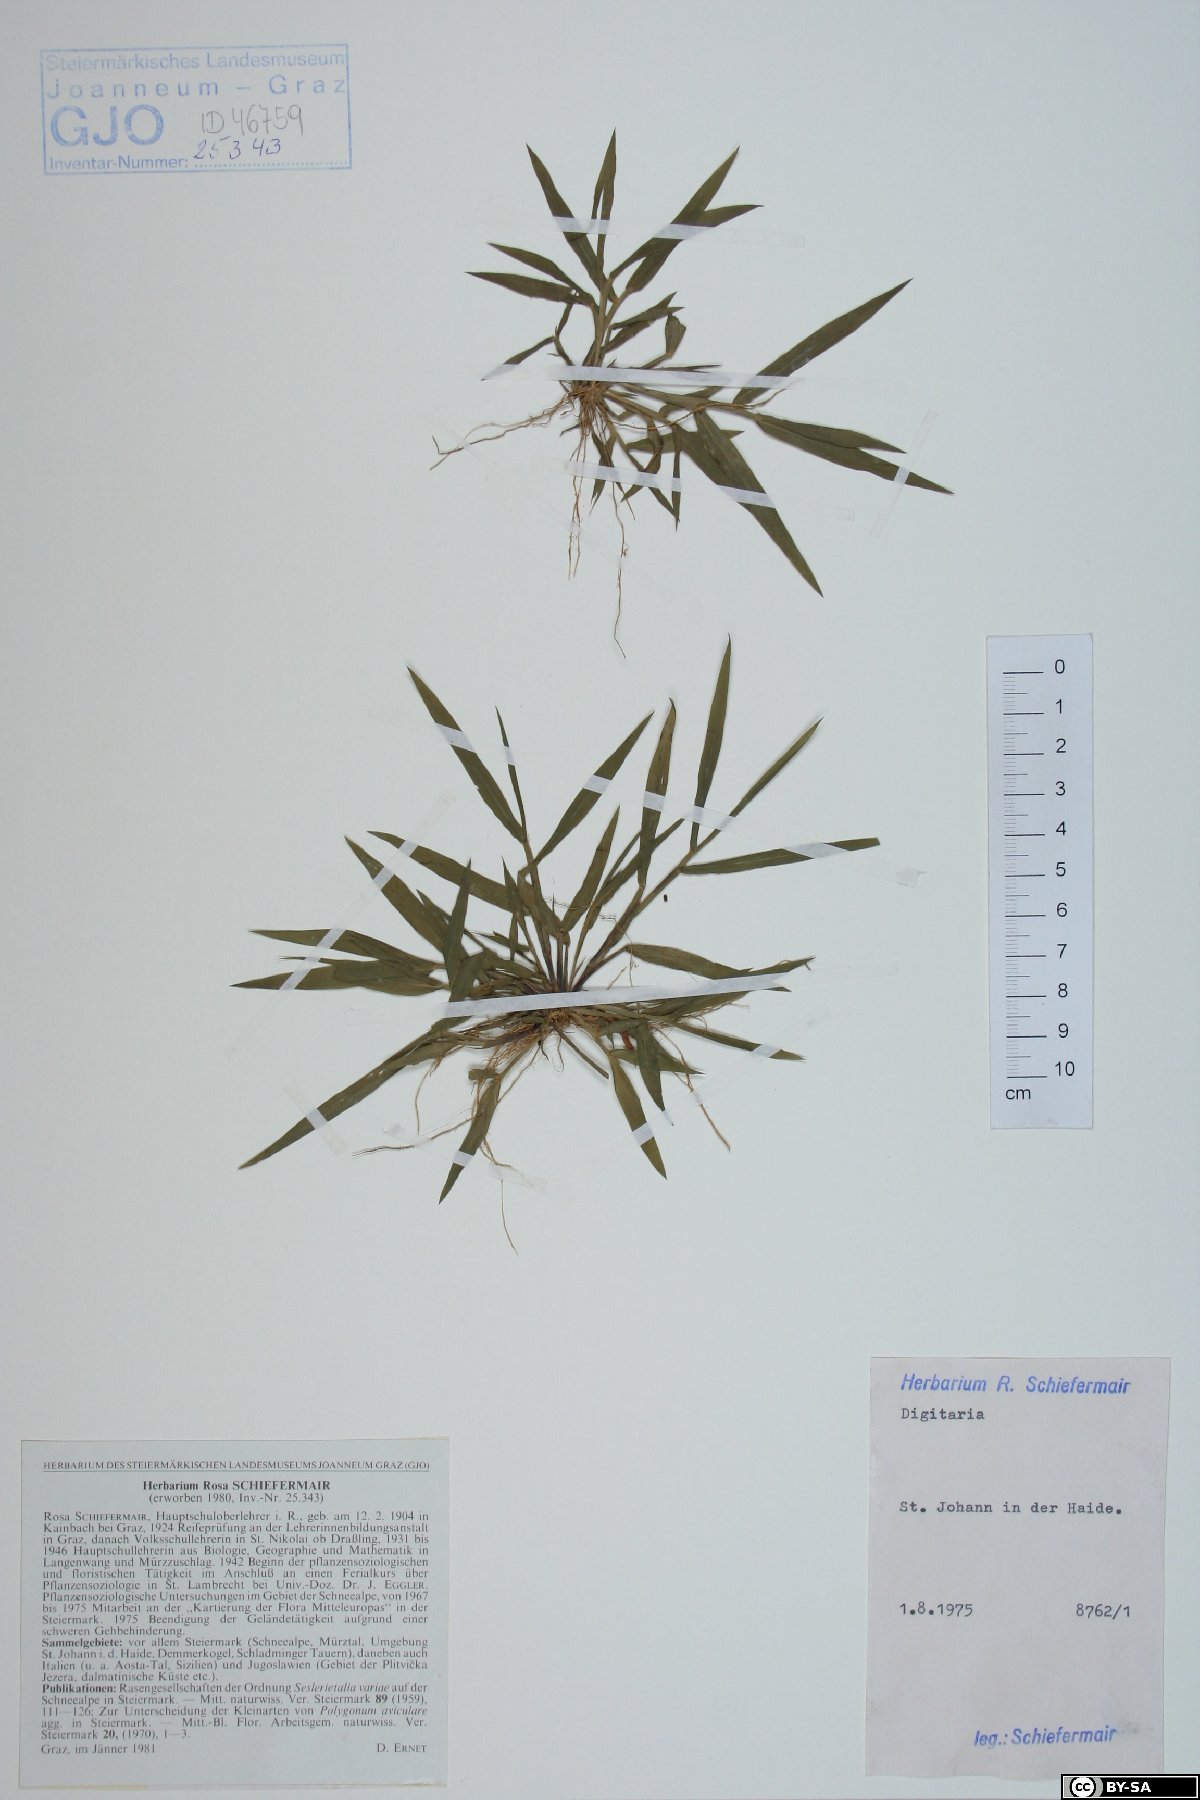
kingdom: Plantae
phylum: Tracheophyta
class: Liliopsida
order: Poales
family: Poaceae
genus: Digitaria
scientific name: Digitaria
